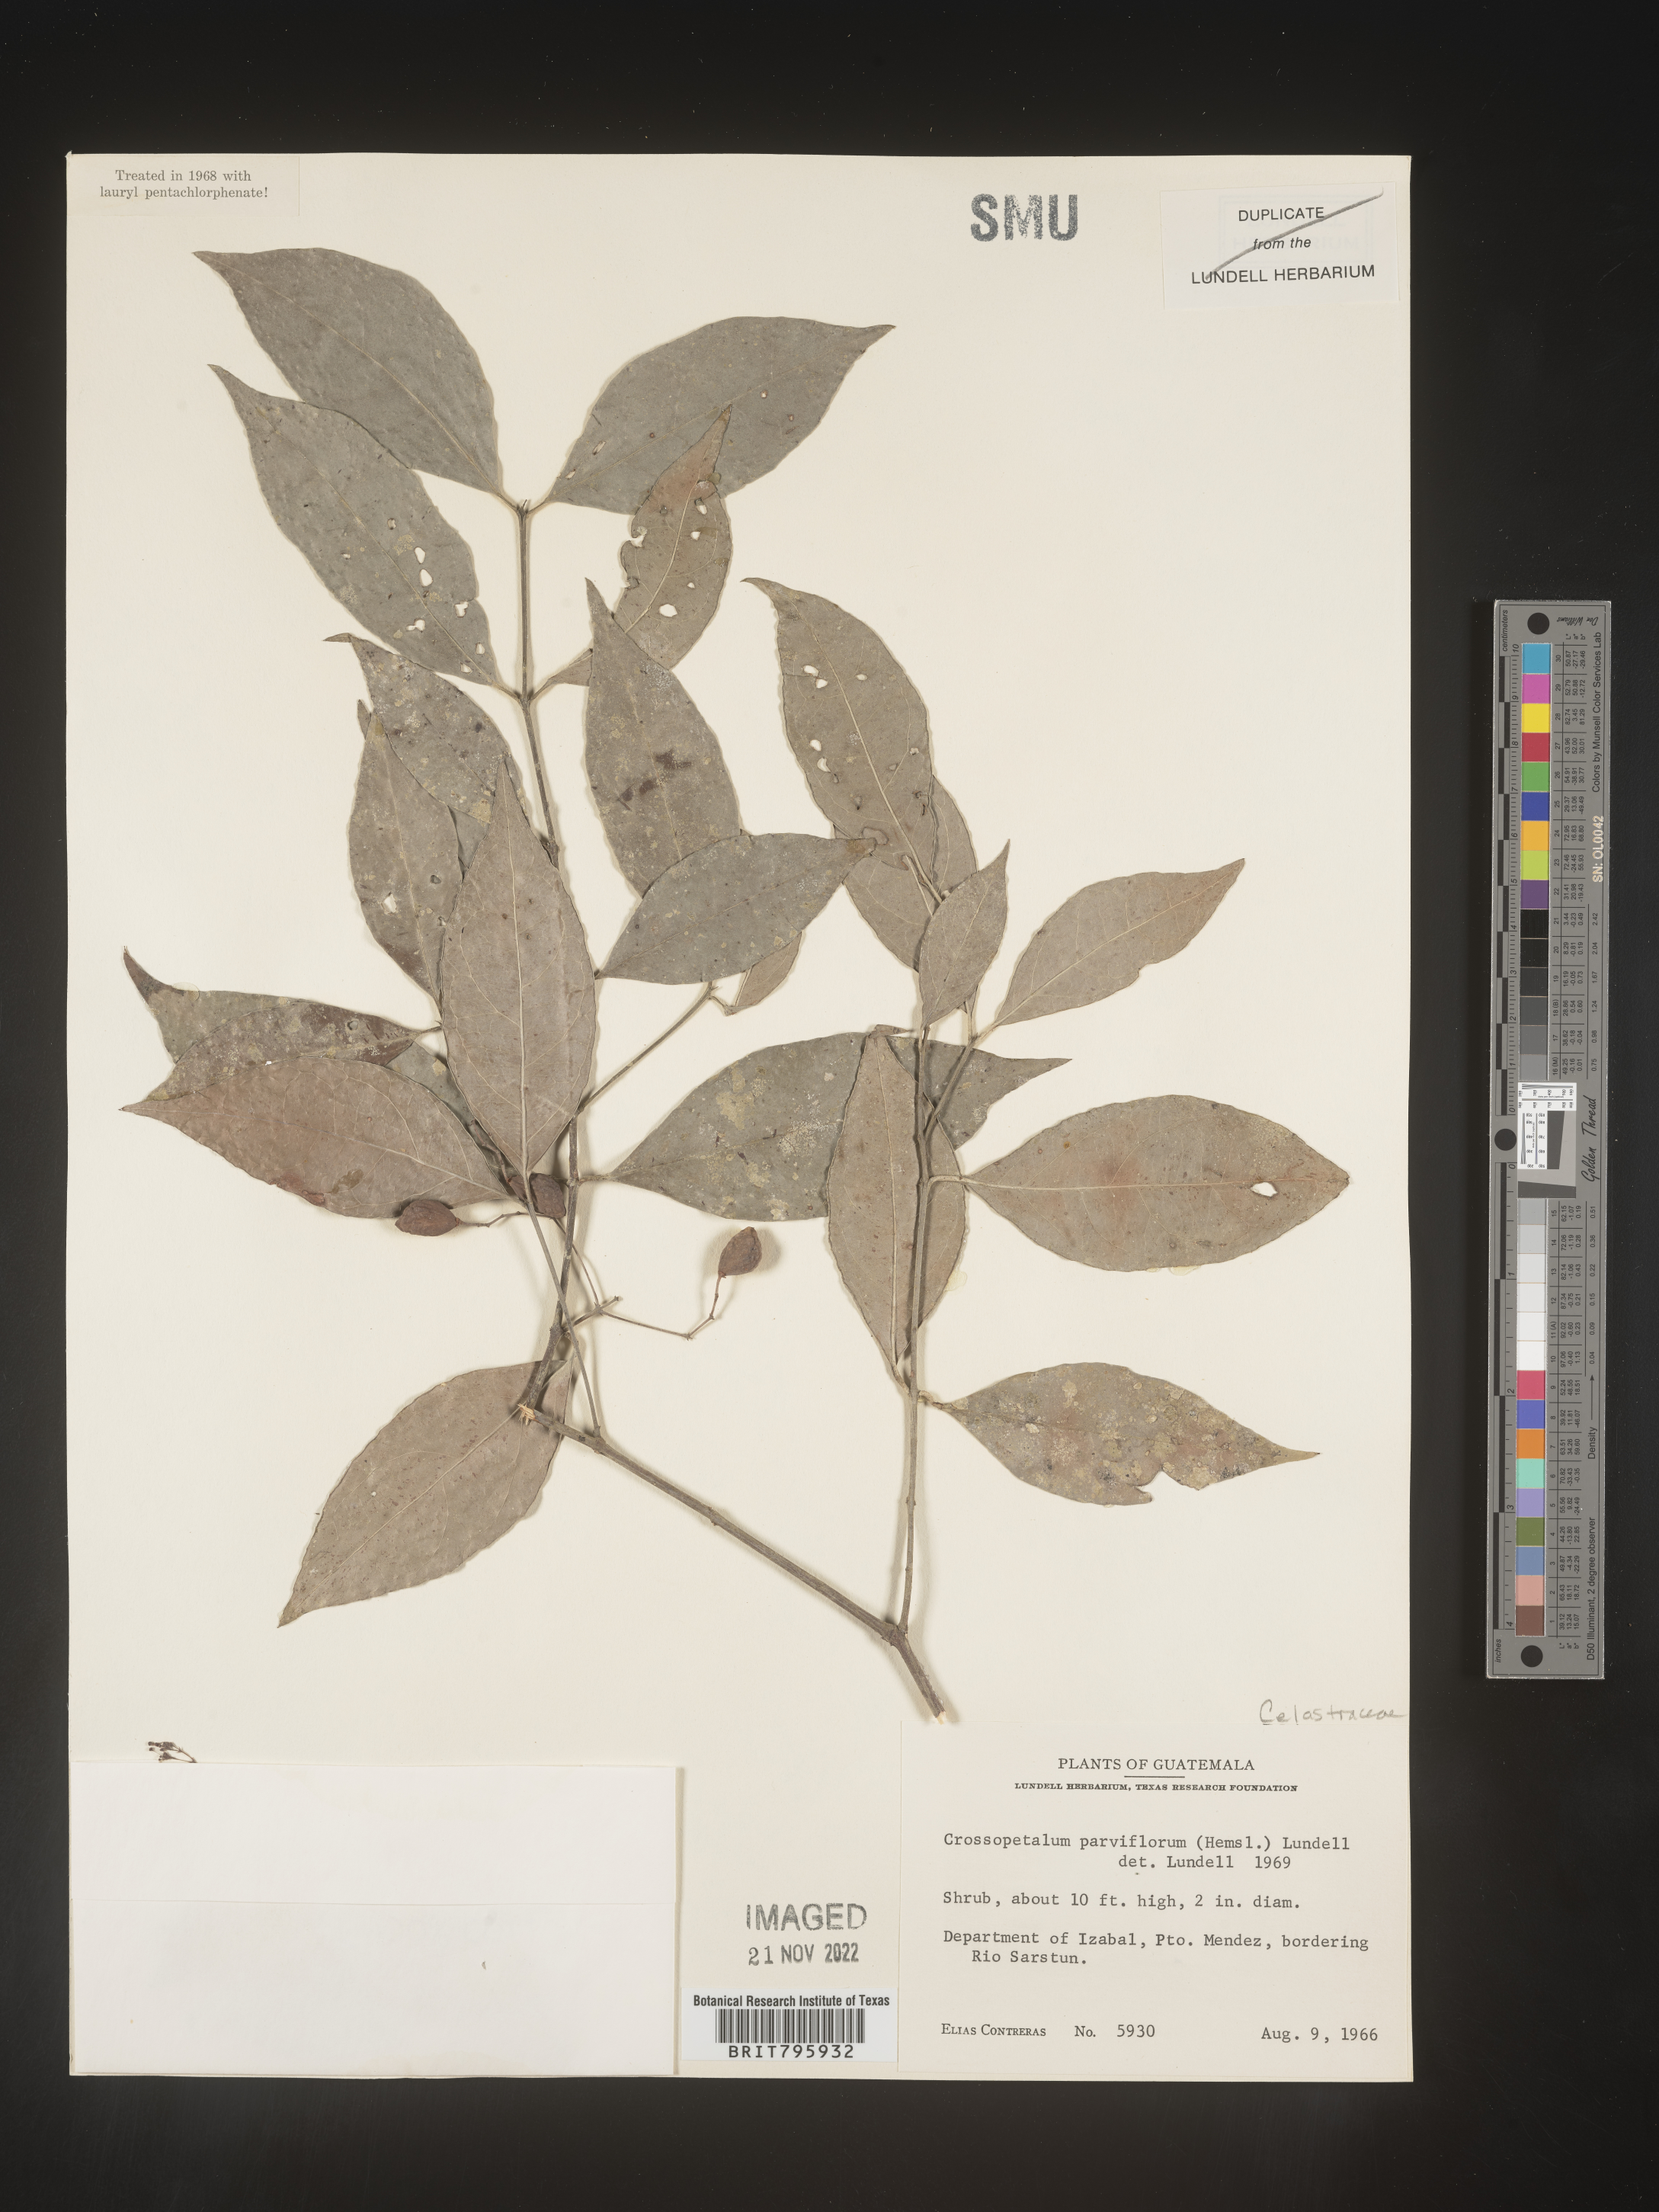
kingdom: Plantae
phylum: Tracheophyta
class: Magnoliopsida
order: Celastrales
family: Celastraceae
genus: Crossopetalum
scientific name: Crossopetalum parviflorum
